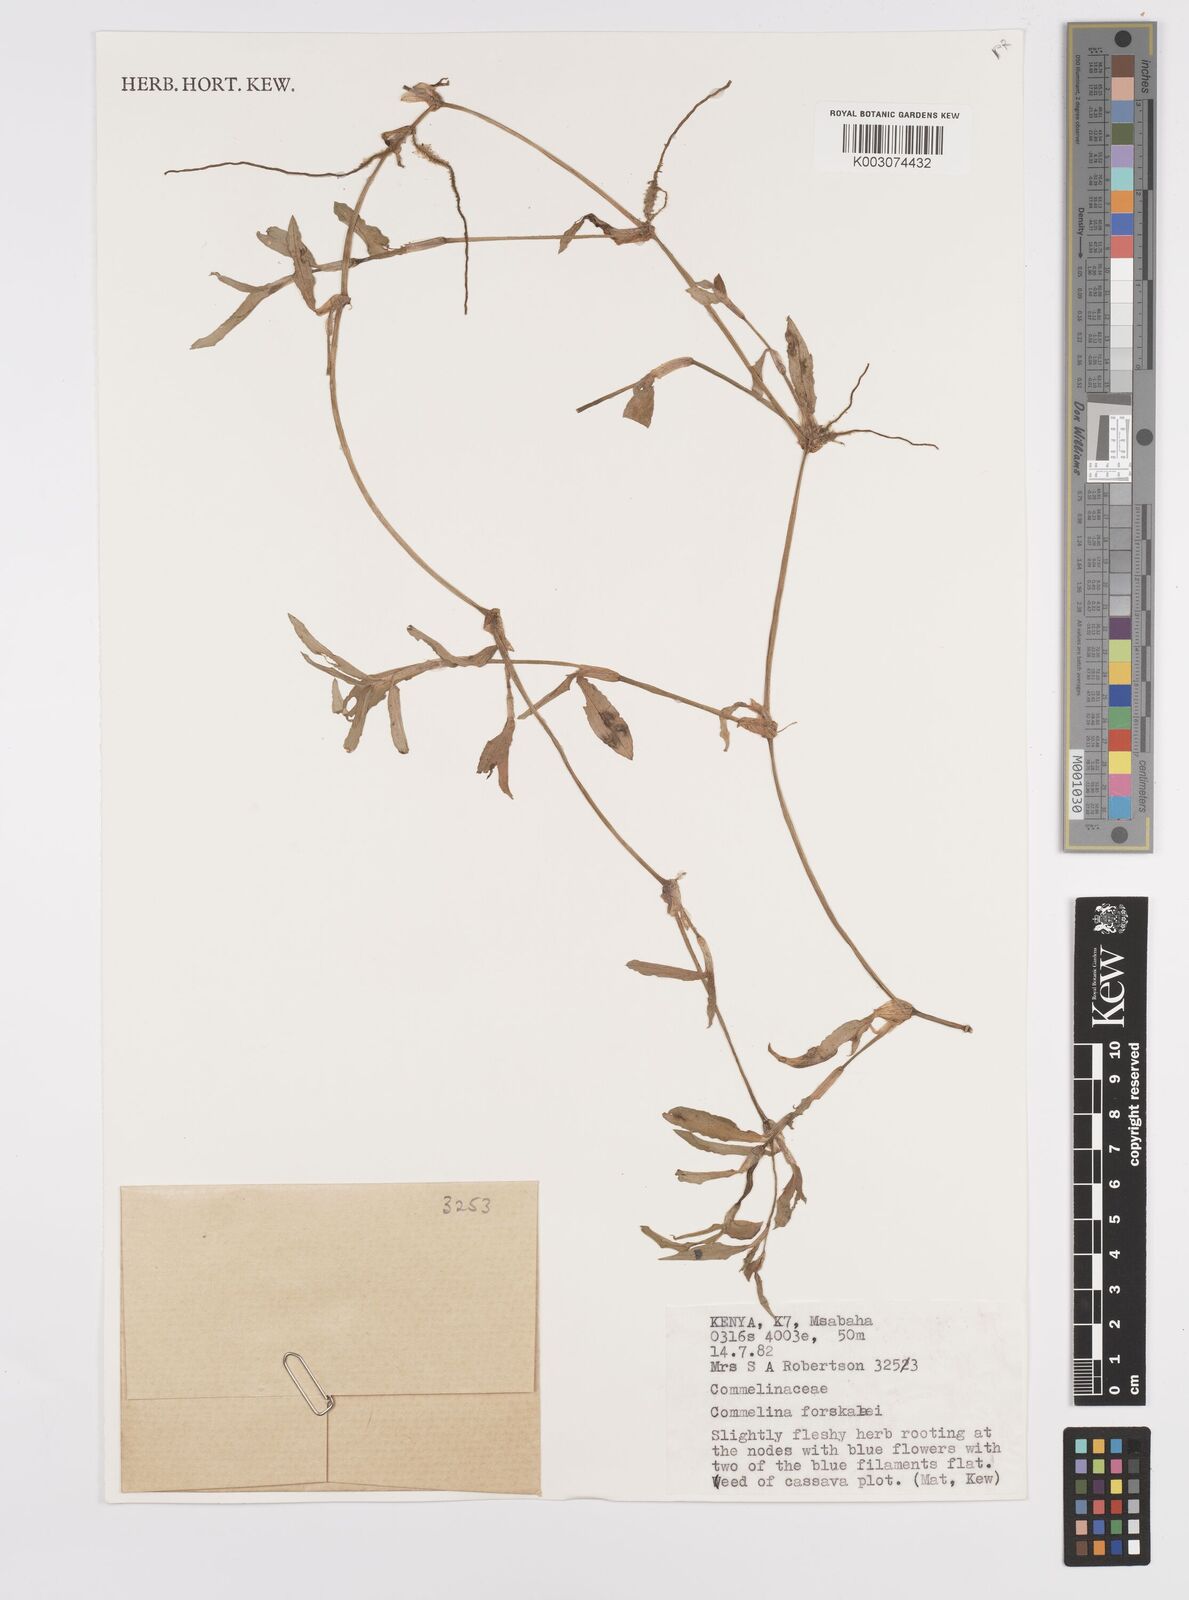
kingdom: Plantae
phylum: Tracheophyta
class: Liliopsida
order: Commelinales
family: Commelinaceae
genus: Commelina
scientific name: Commelina forskaolii
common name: Rat's ear
